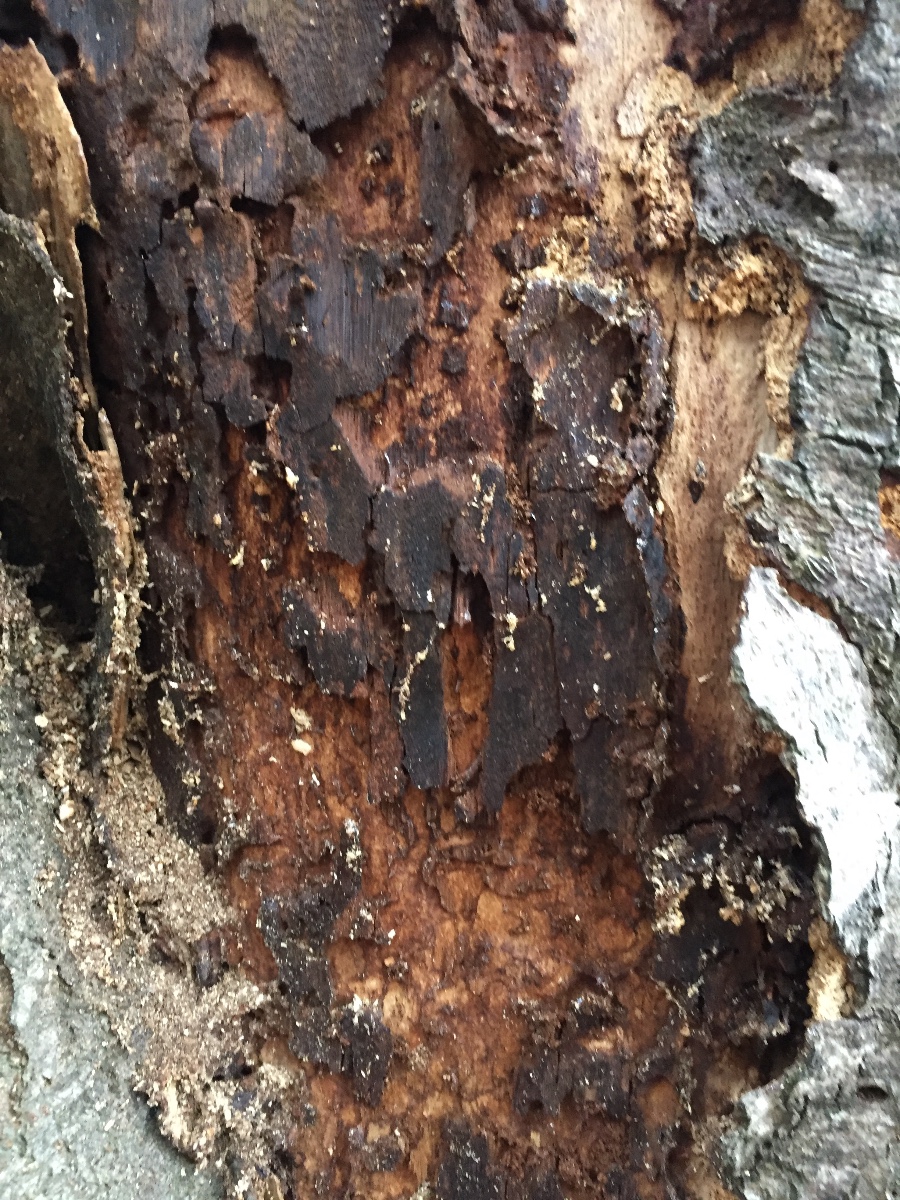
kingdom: Fungi
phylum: Basidiomycota
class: Agaricomycetes
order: Hymenochaetales
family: Hymenochaetaceae
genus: Inonotus
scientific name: Inonotus obliquus
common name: birke-spejlporesvamp
